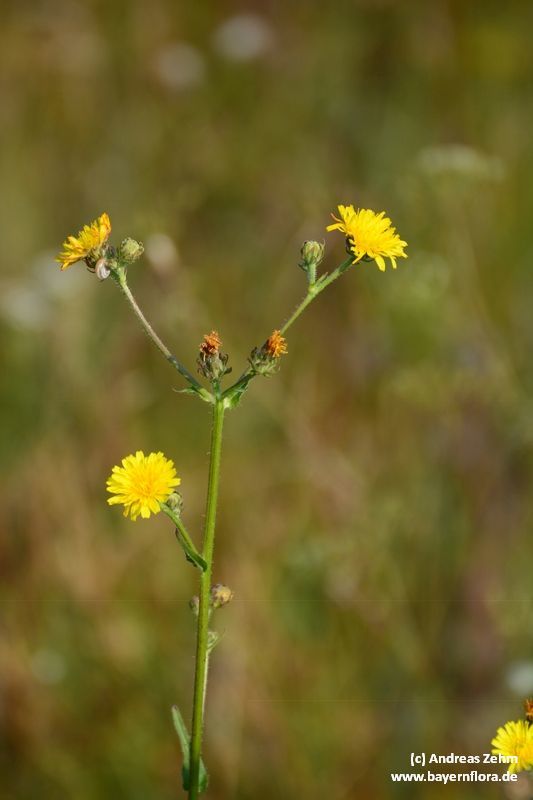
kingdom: Plantae
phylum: Tracheophyta
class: Magnoliopsida
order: Asterales
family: Asteraceae
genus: Picris
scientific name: Picris hieracioides
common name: Hawkweed oxtongue
